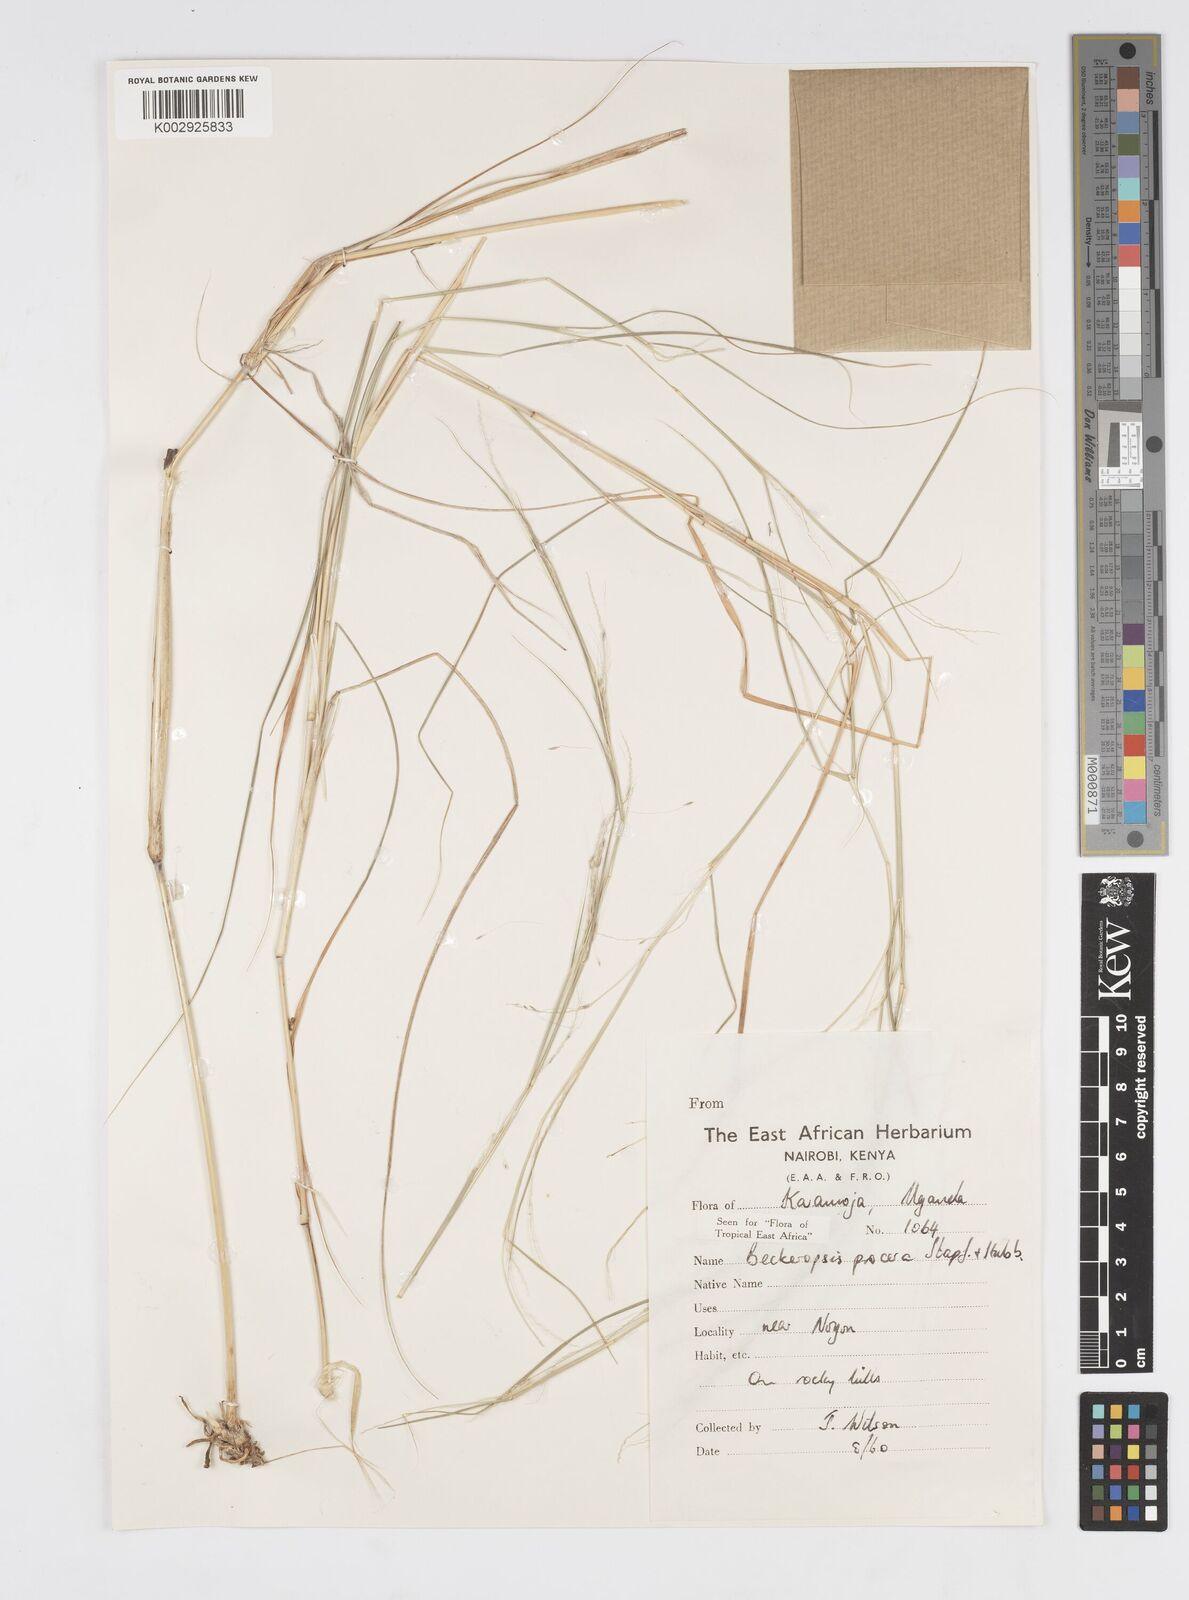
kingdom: Plantae
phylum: Tracheophyta
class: Liliopsida
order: Poales
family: Poaceae
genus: Cenchrus
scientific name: Cenchrus procerus
